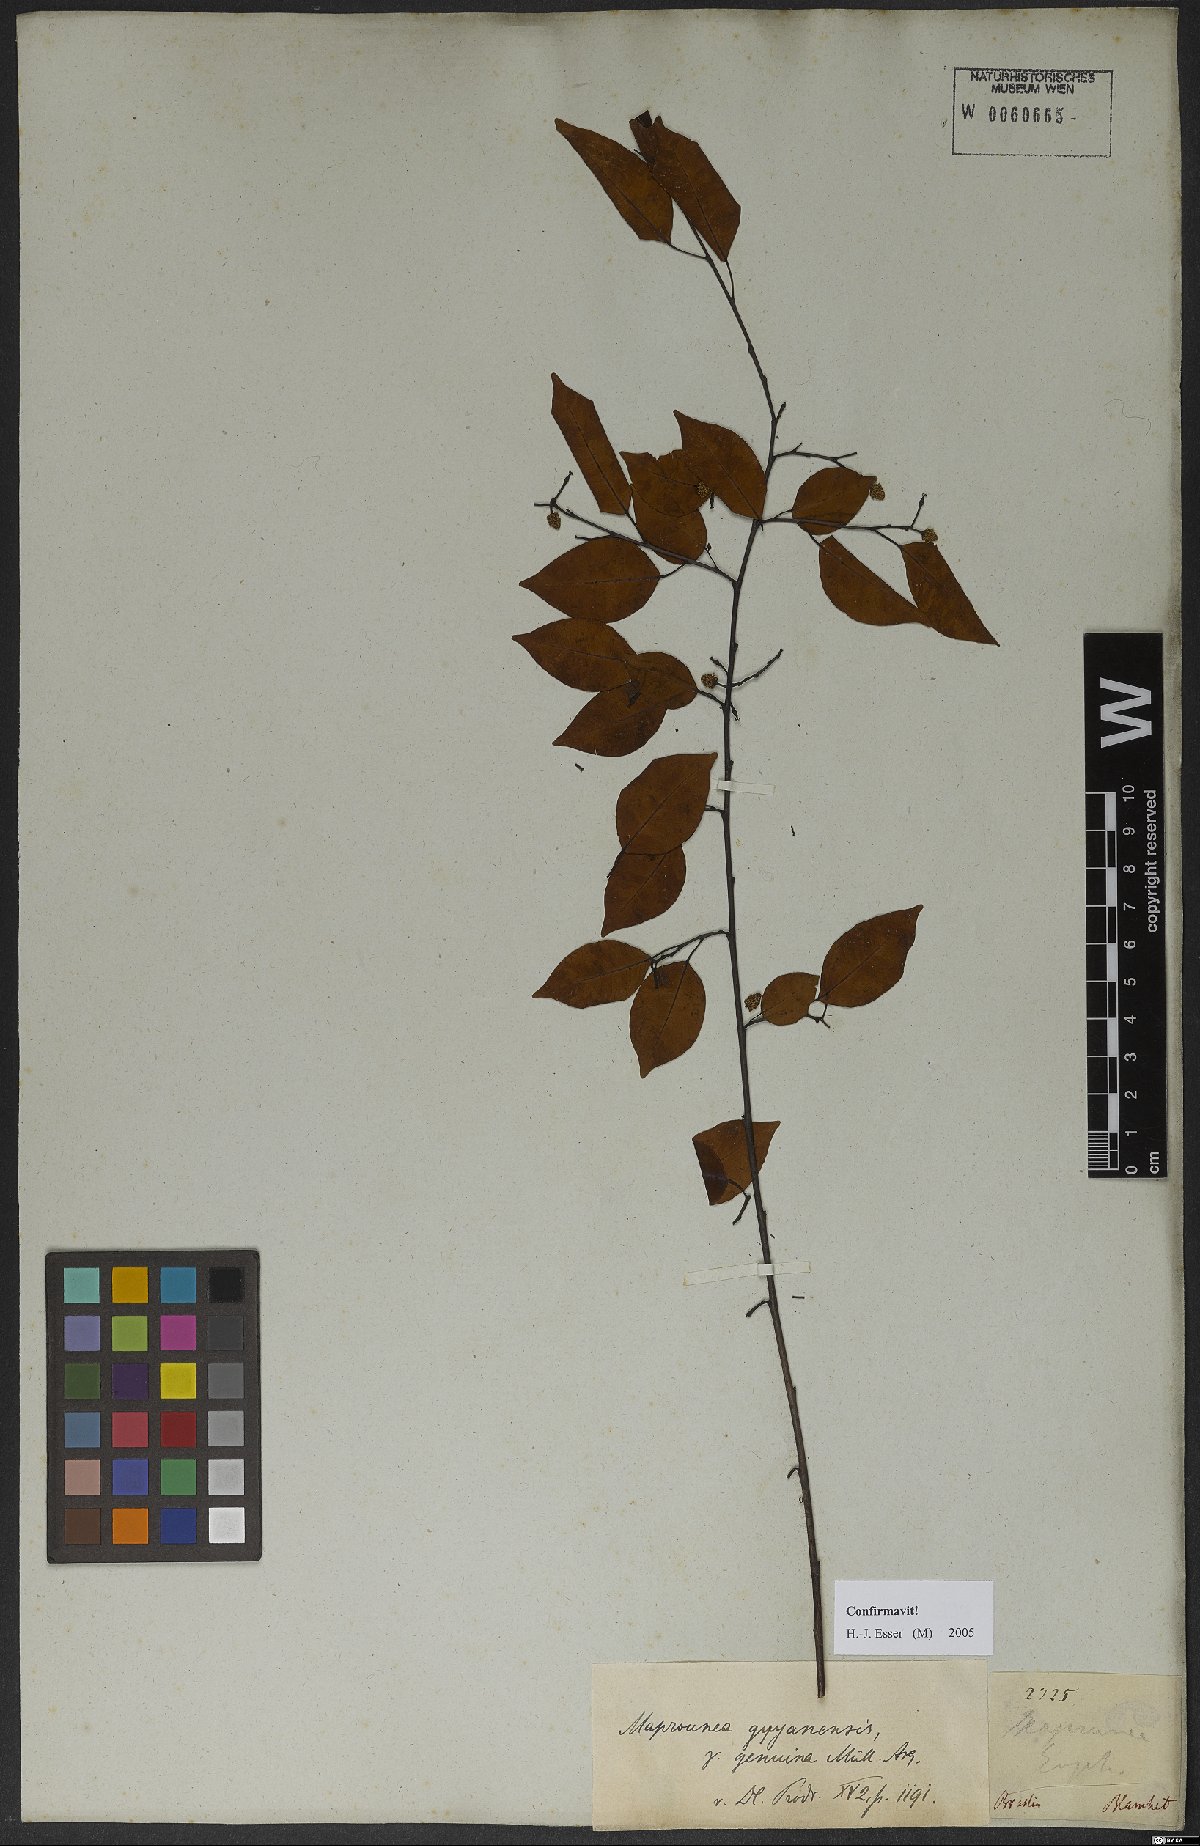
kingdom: Plantae
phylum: Tracheophyta
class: Magnoliopsida
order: Malpighiales
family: Euphorbiaceae
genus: Maprounea
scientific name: Maprounea guianensis
